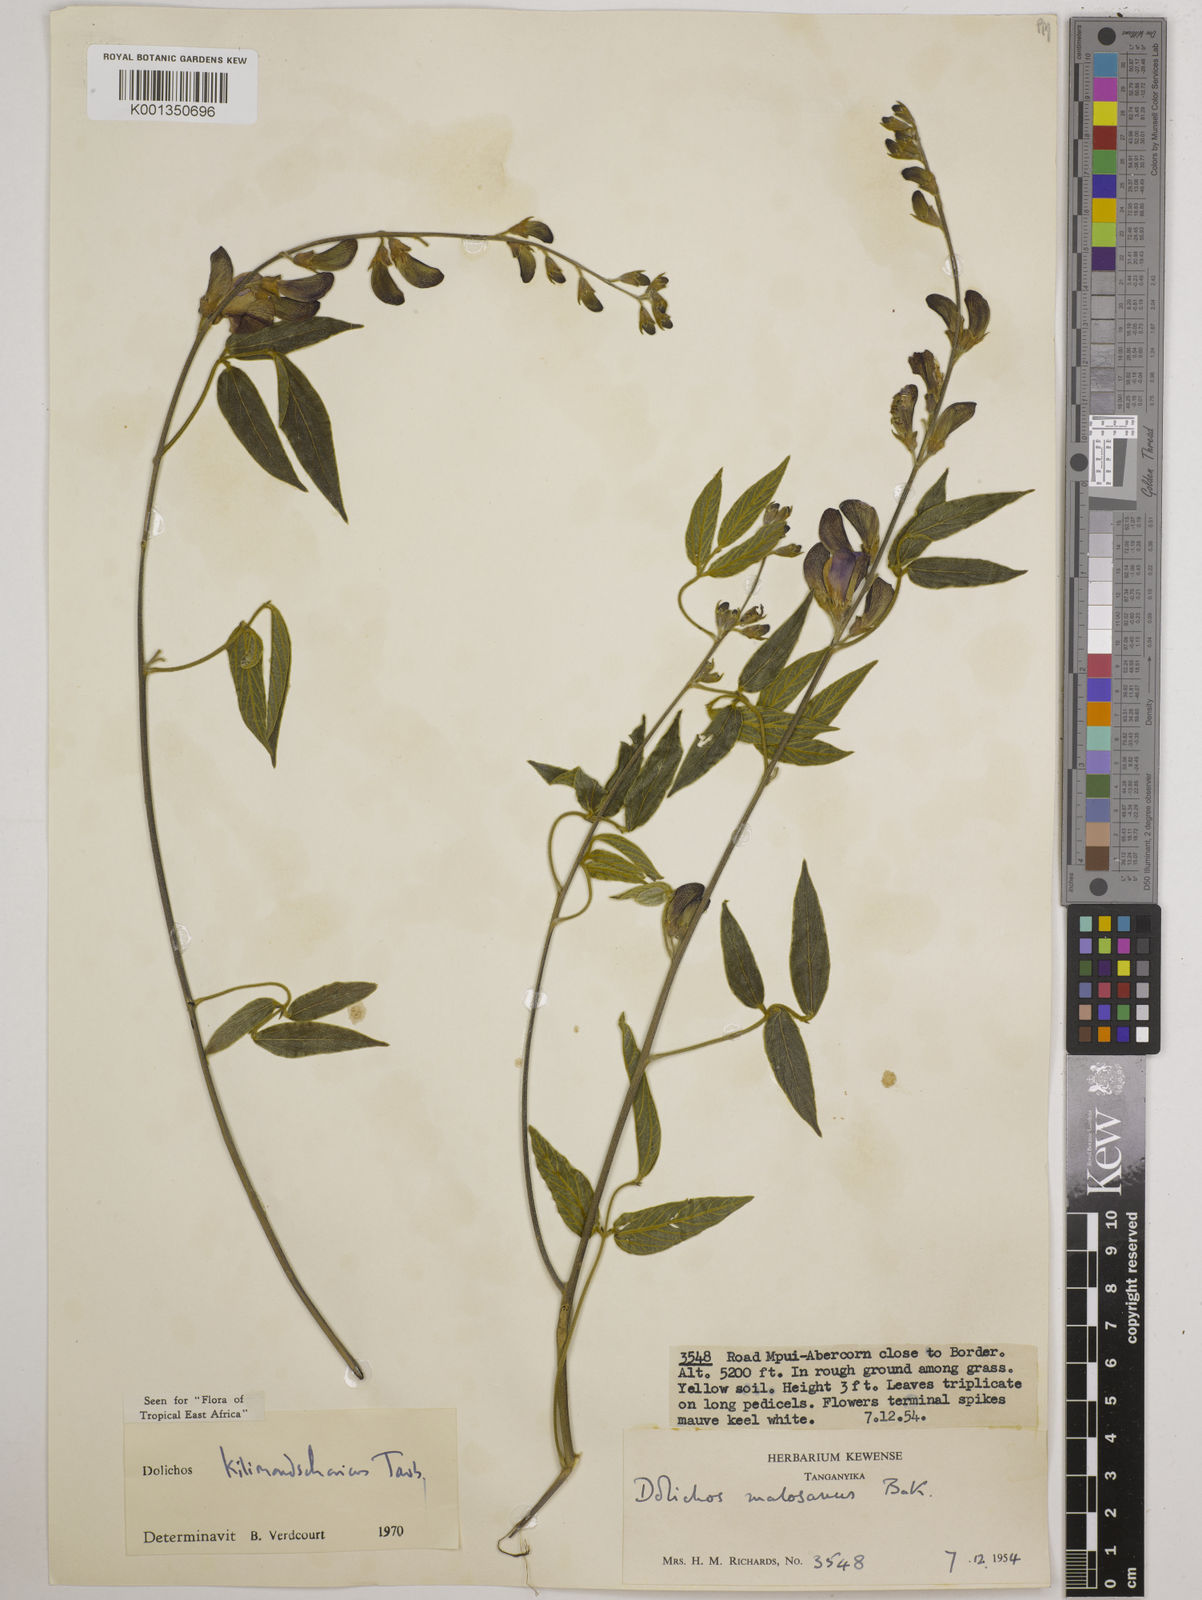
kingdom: Plantae
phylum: Tracheophyta
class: Magnoliopsida
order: Fabales
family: Fabaceae
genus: Dolichos
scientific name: Dolichos kilimandscharicus
